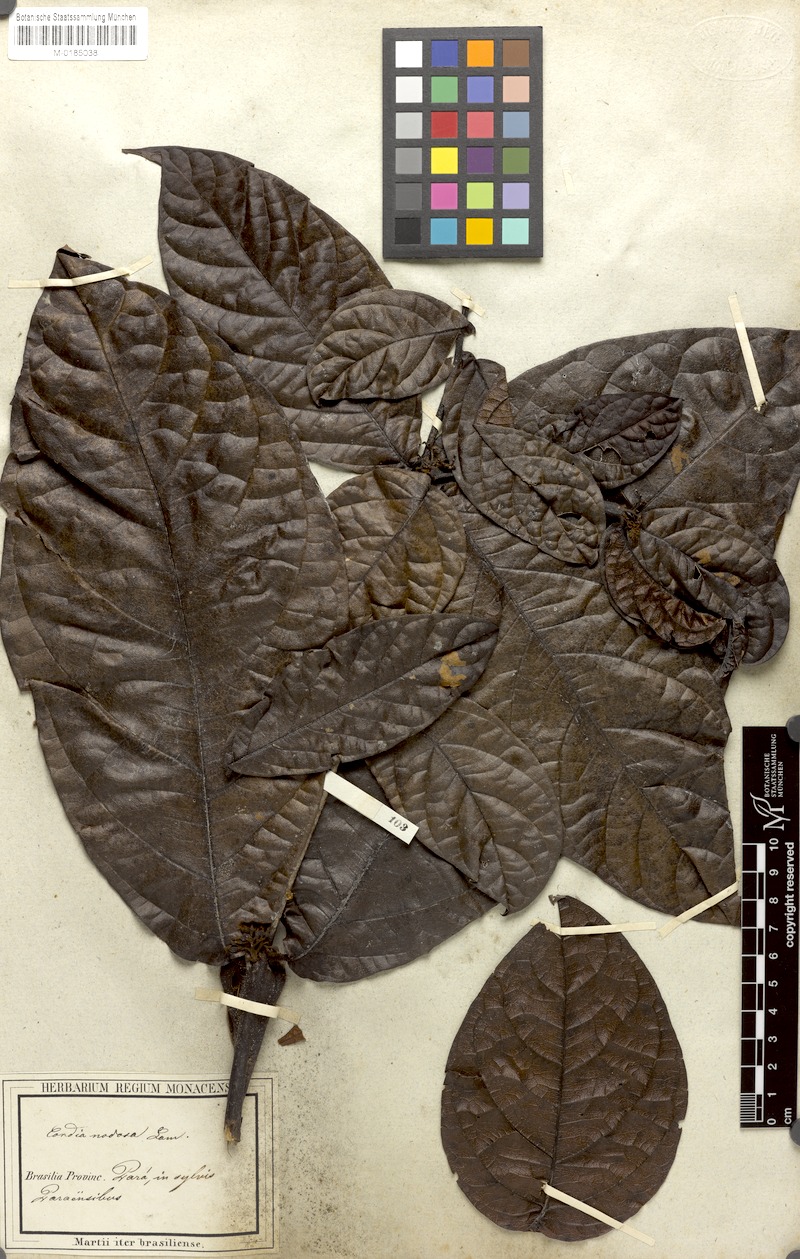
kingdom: Plantae
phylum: Tracheophyta
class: Magnoliopsida
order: Boraginales
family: Cordiaceae
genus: Cordia
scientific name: Cordia nodosa
